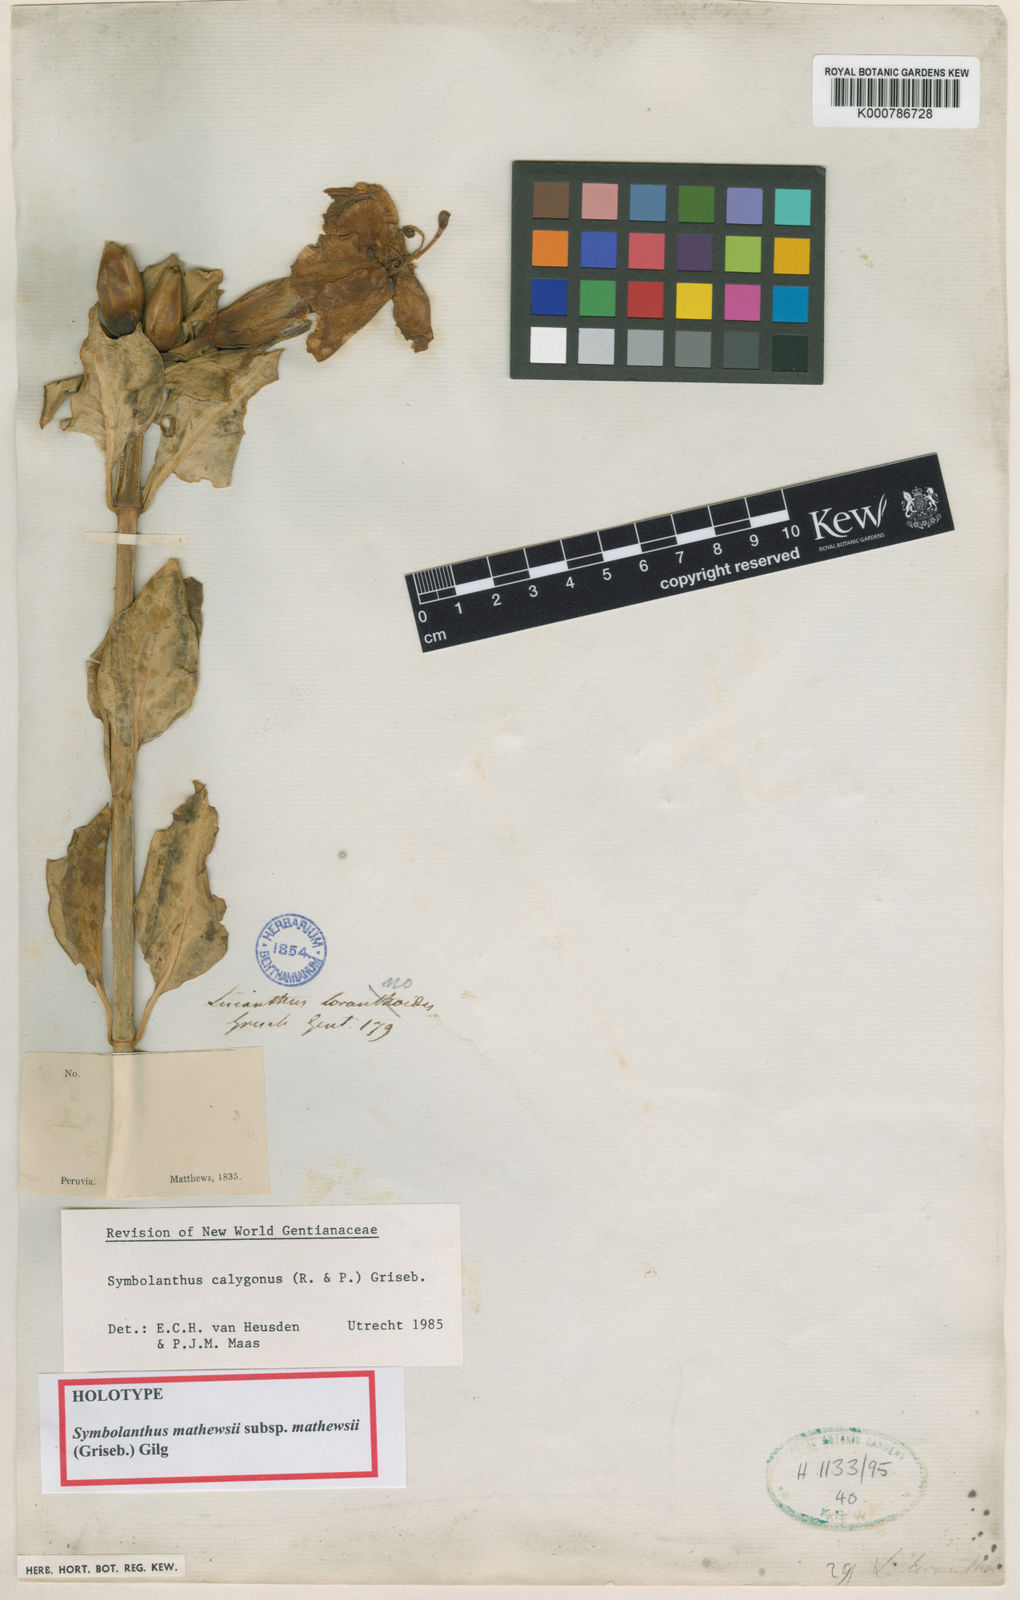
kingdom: Plantae
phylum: Tracheophyta
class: Magnoliopsida
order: Gentianales
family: Gentianaceae
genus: Symbolanthus
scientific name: Symbolanthus
